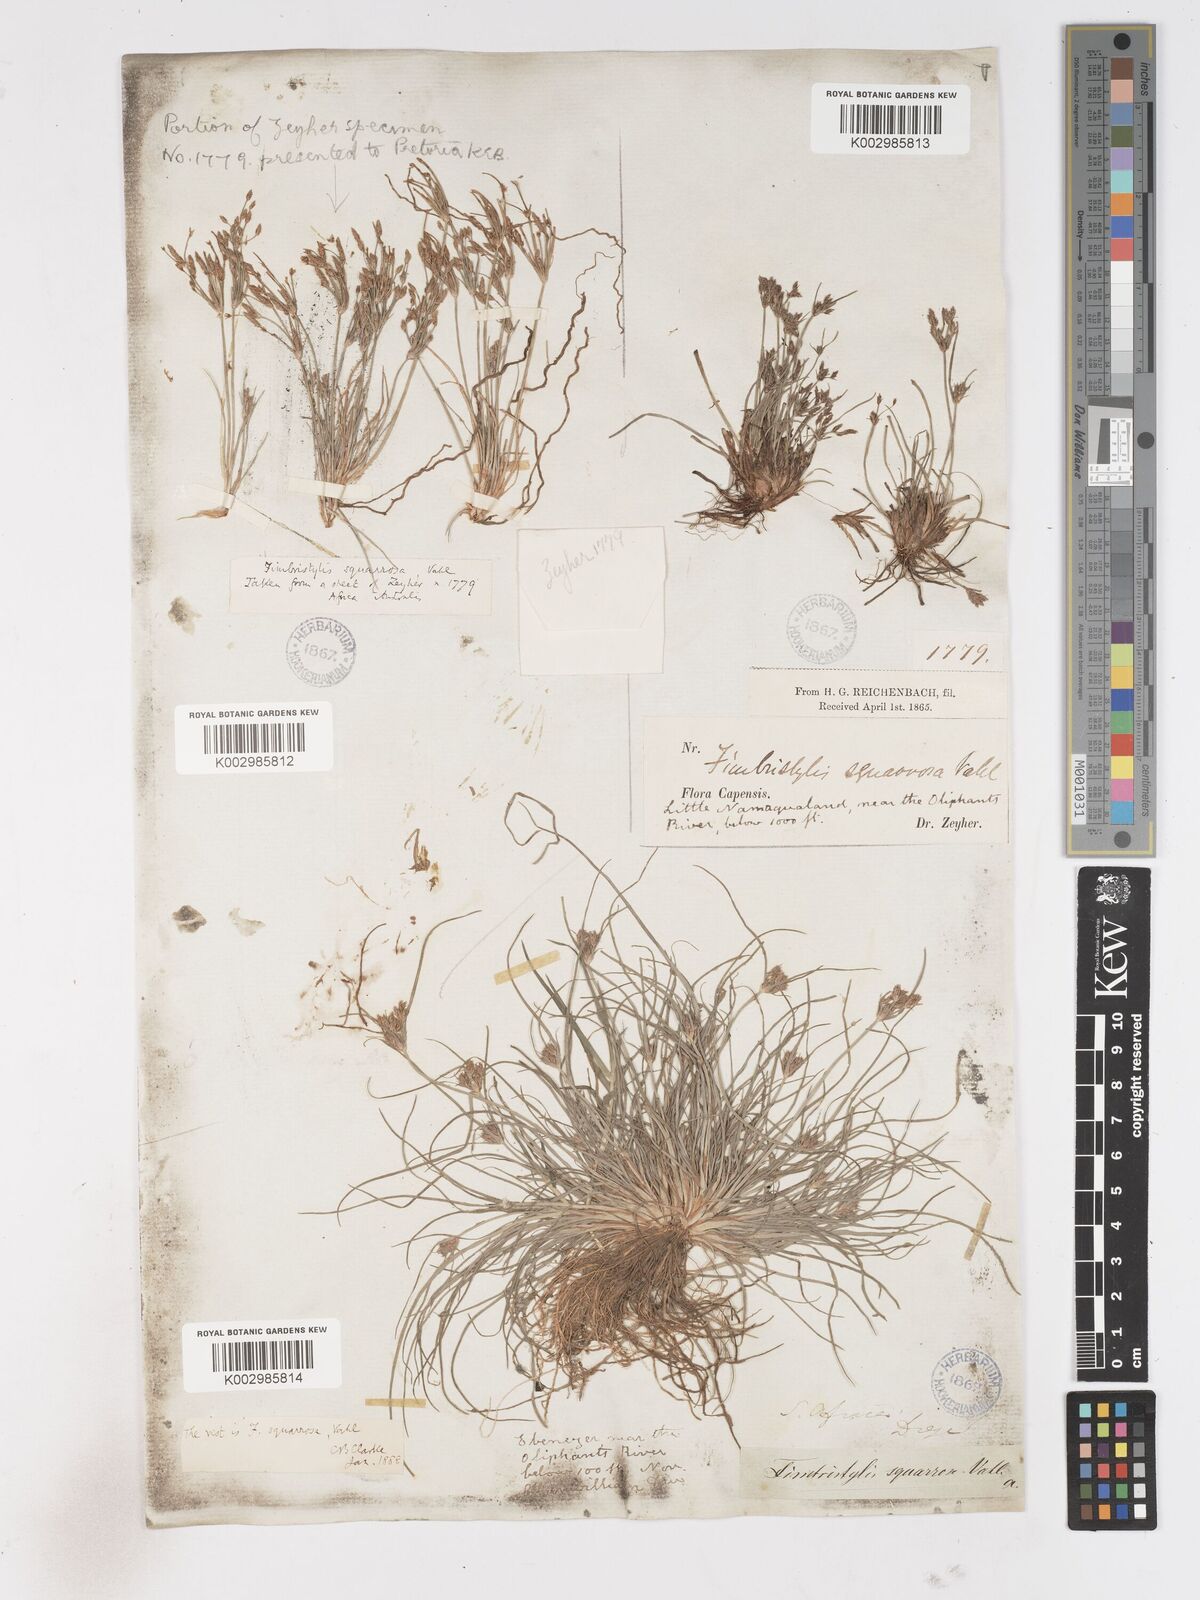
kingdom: Plantae
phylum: Tracheophyta
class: Liliopsida
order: Poales
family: Cyperaceae
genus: Fimbristylis
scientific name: Fimbristylis velata
